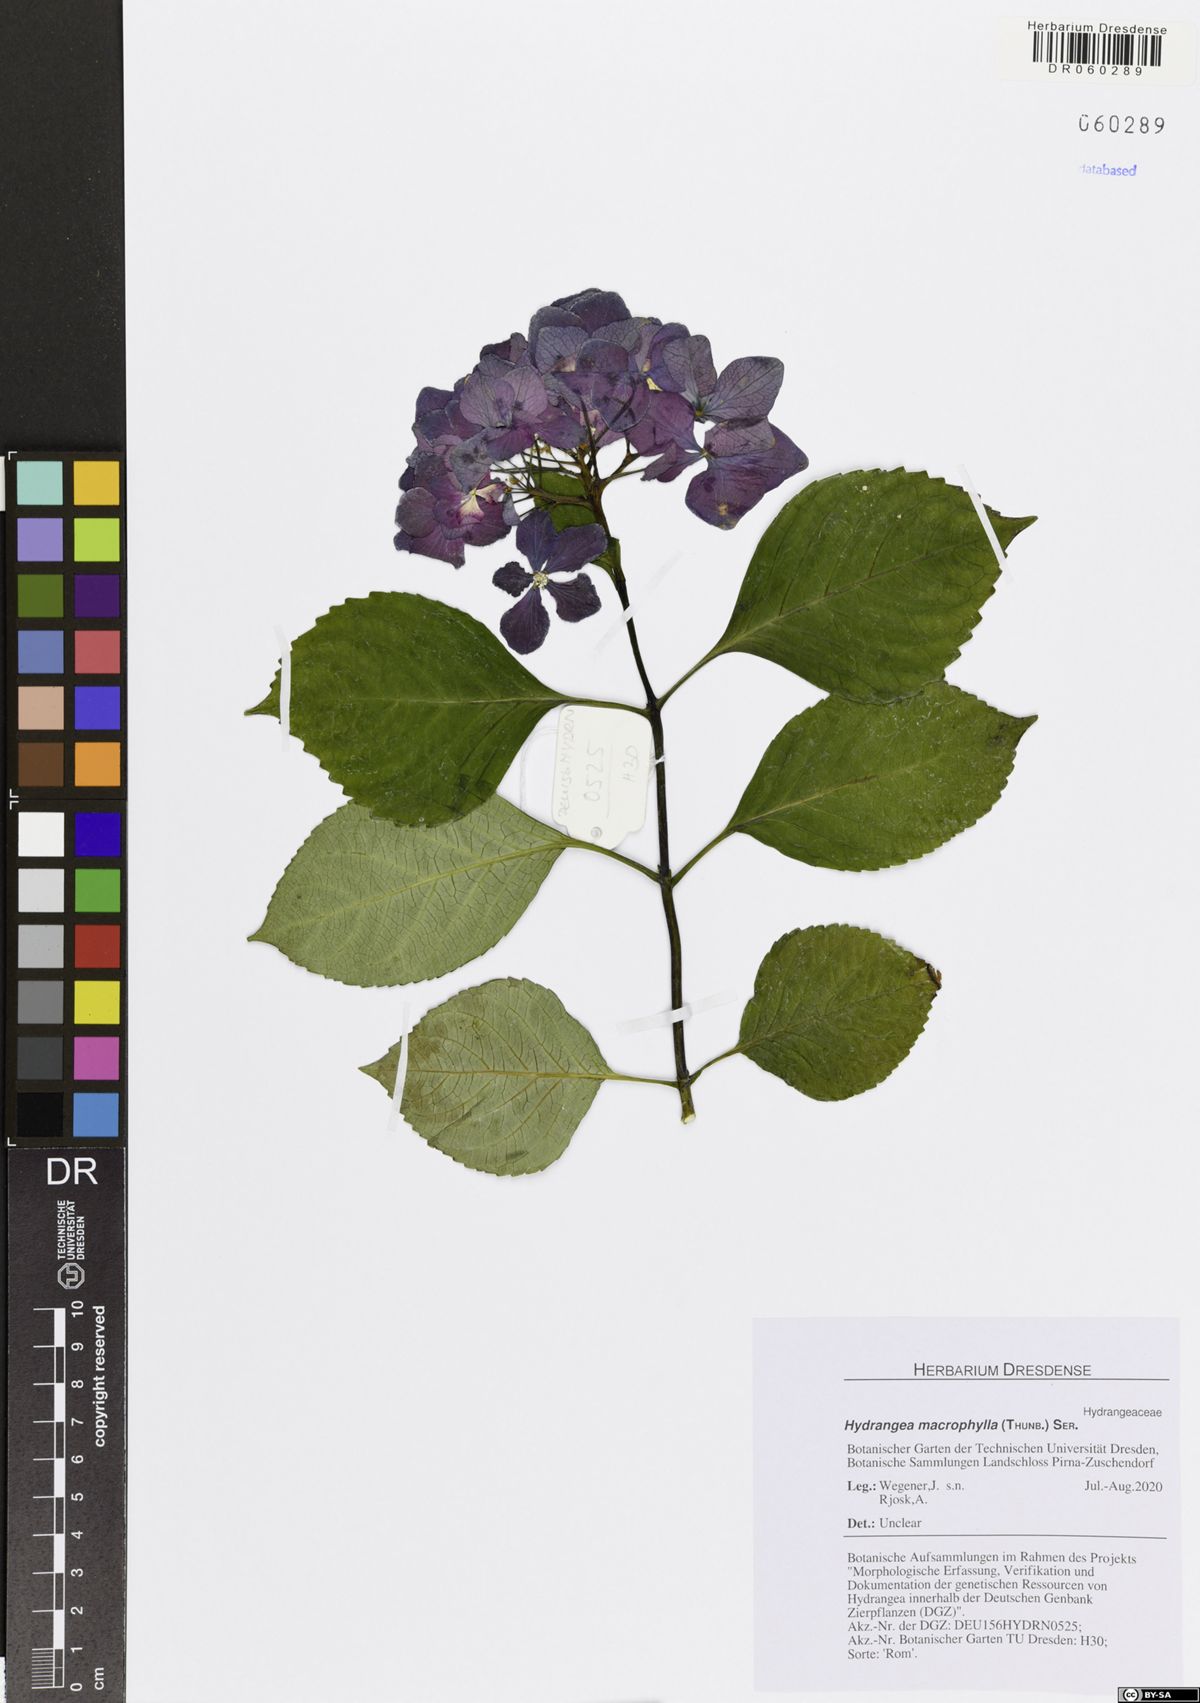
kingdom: Plantae
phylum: Tracheophyta
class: Magnoliopsida
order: Cornales
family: Hydrangeaceae
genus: Hydrangea
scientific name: Hydrangea macrophylla
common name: Hydrangea
